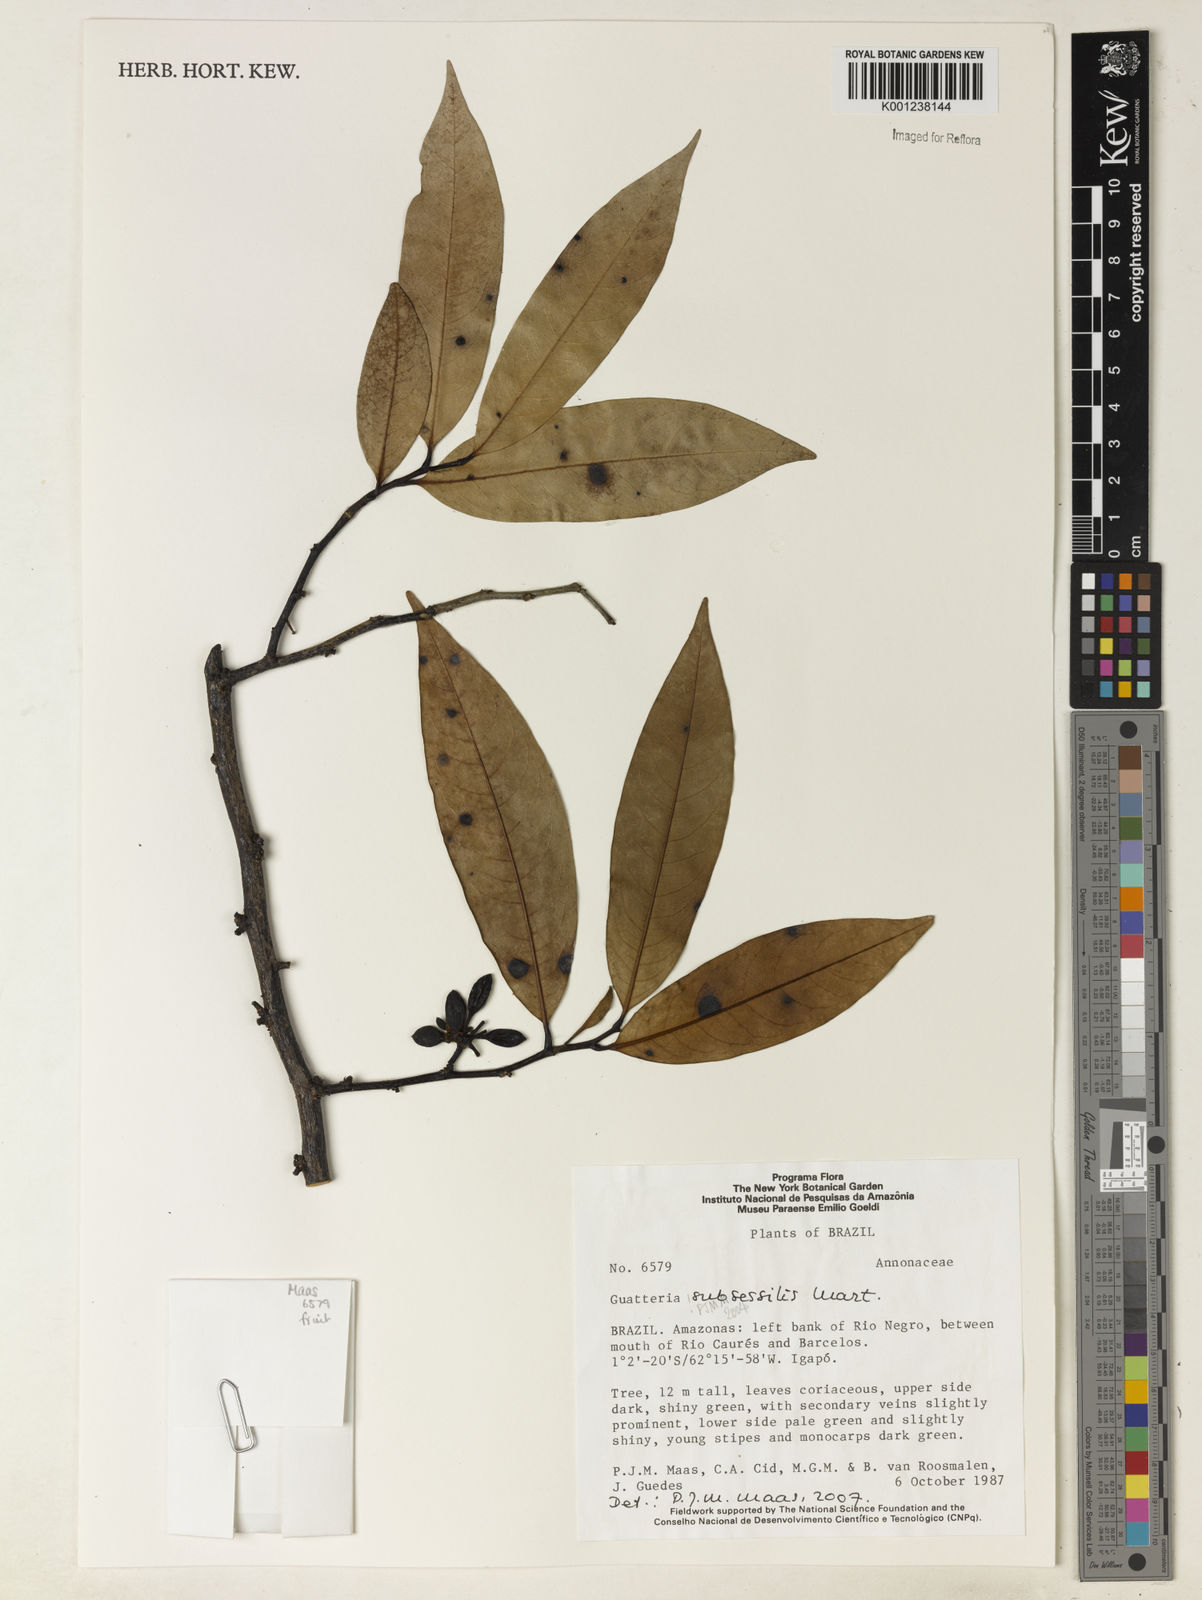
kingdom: Plantae
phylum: Tracheophyta
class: Magnoliopsida
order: Magnoliales
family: Annonaceae
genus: Guatteria
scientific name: Guatteria subsessilis
